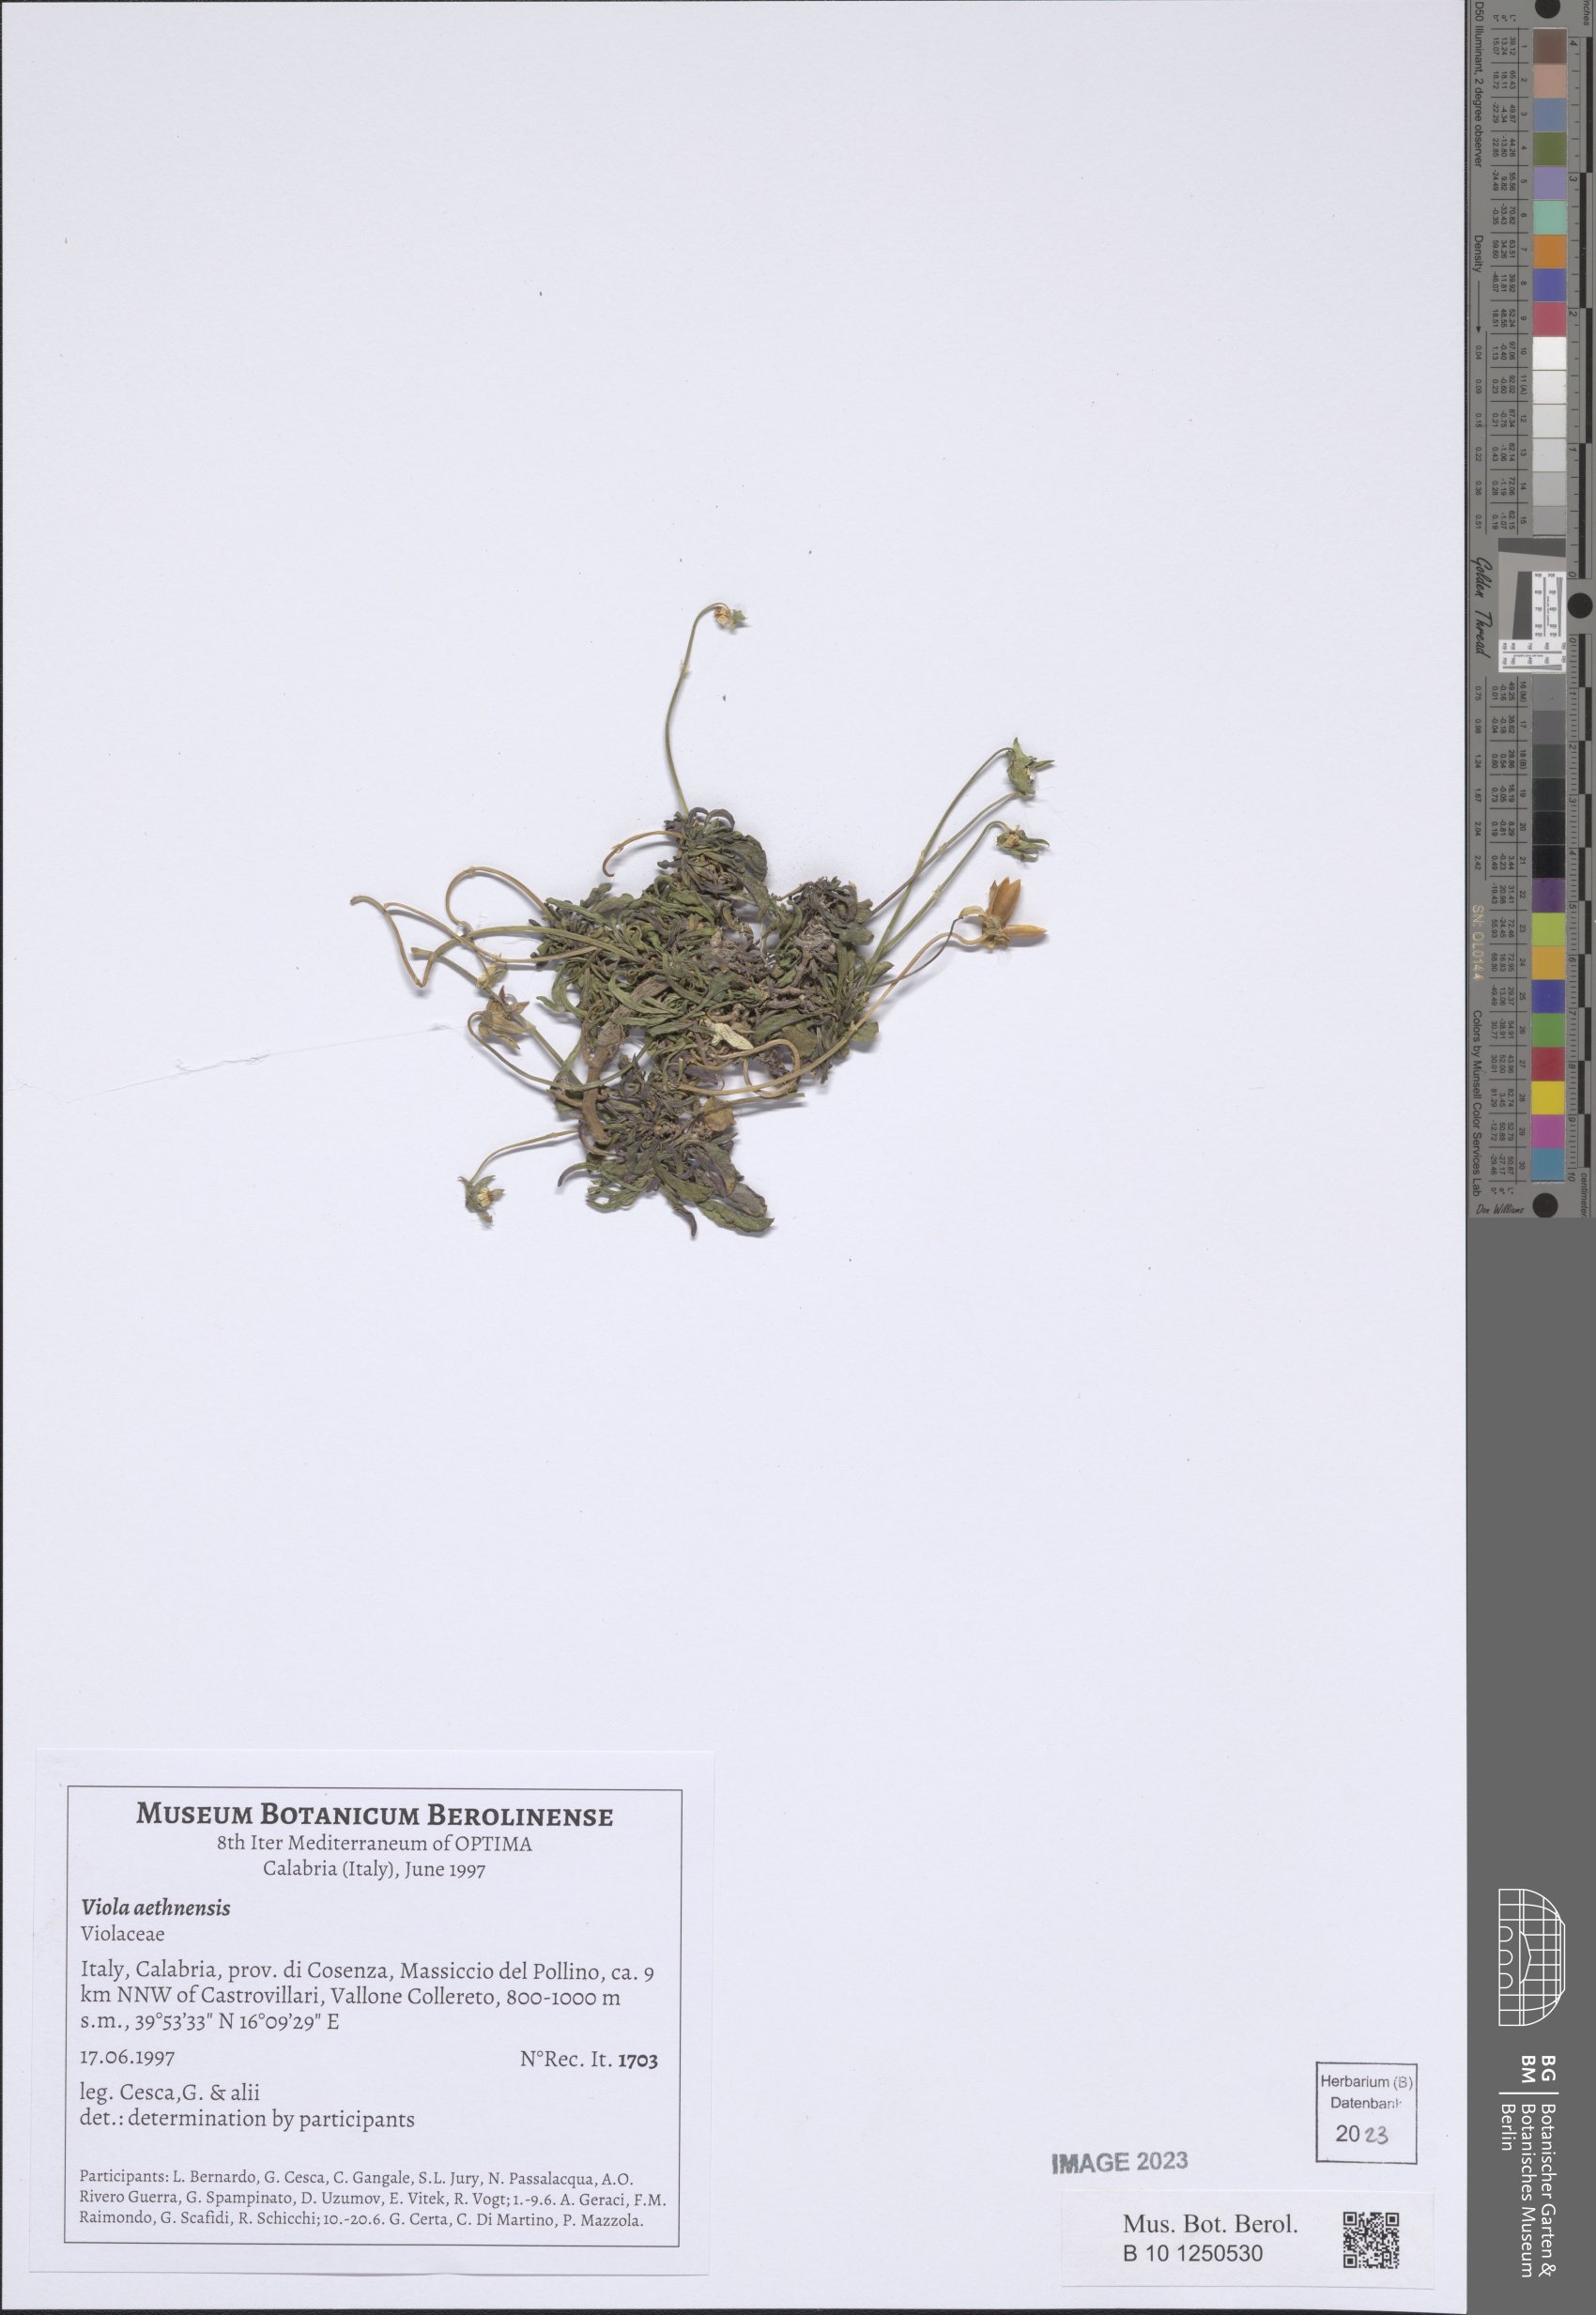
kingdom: Plantae
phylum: Tracheophyta
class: Magnoliopsida
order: Malpighiales
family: Violaceae
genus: Viola
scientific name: Viola aethnensis
